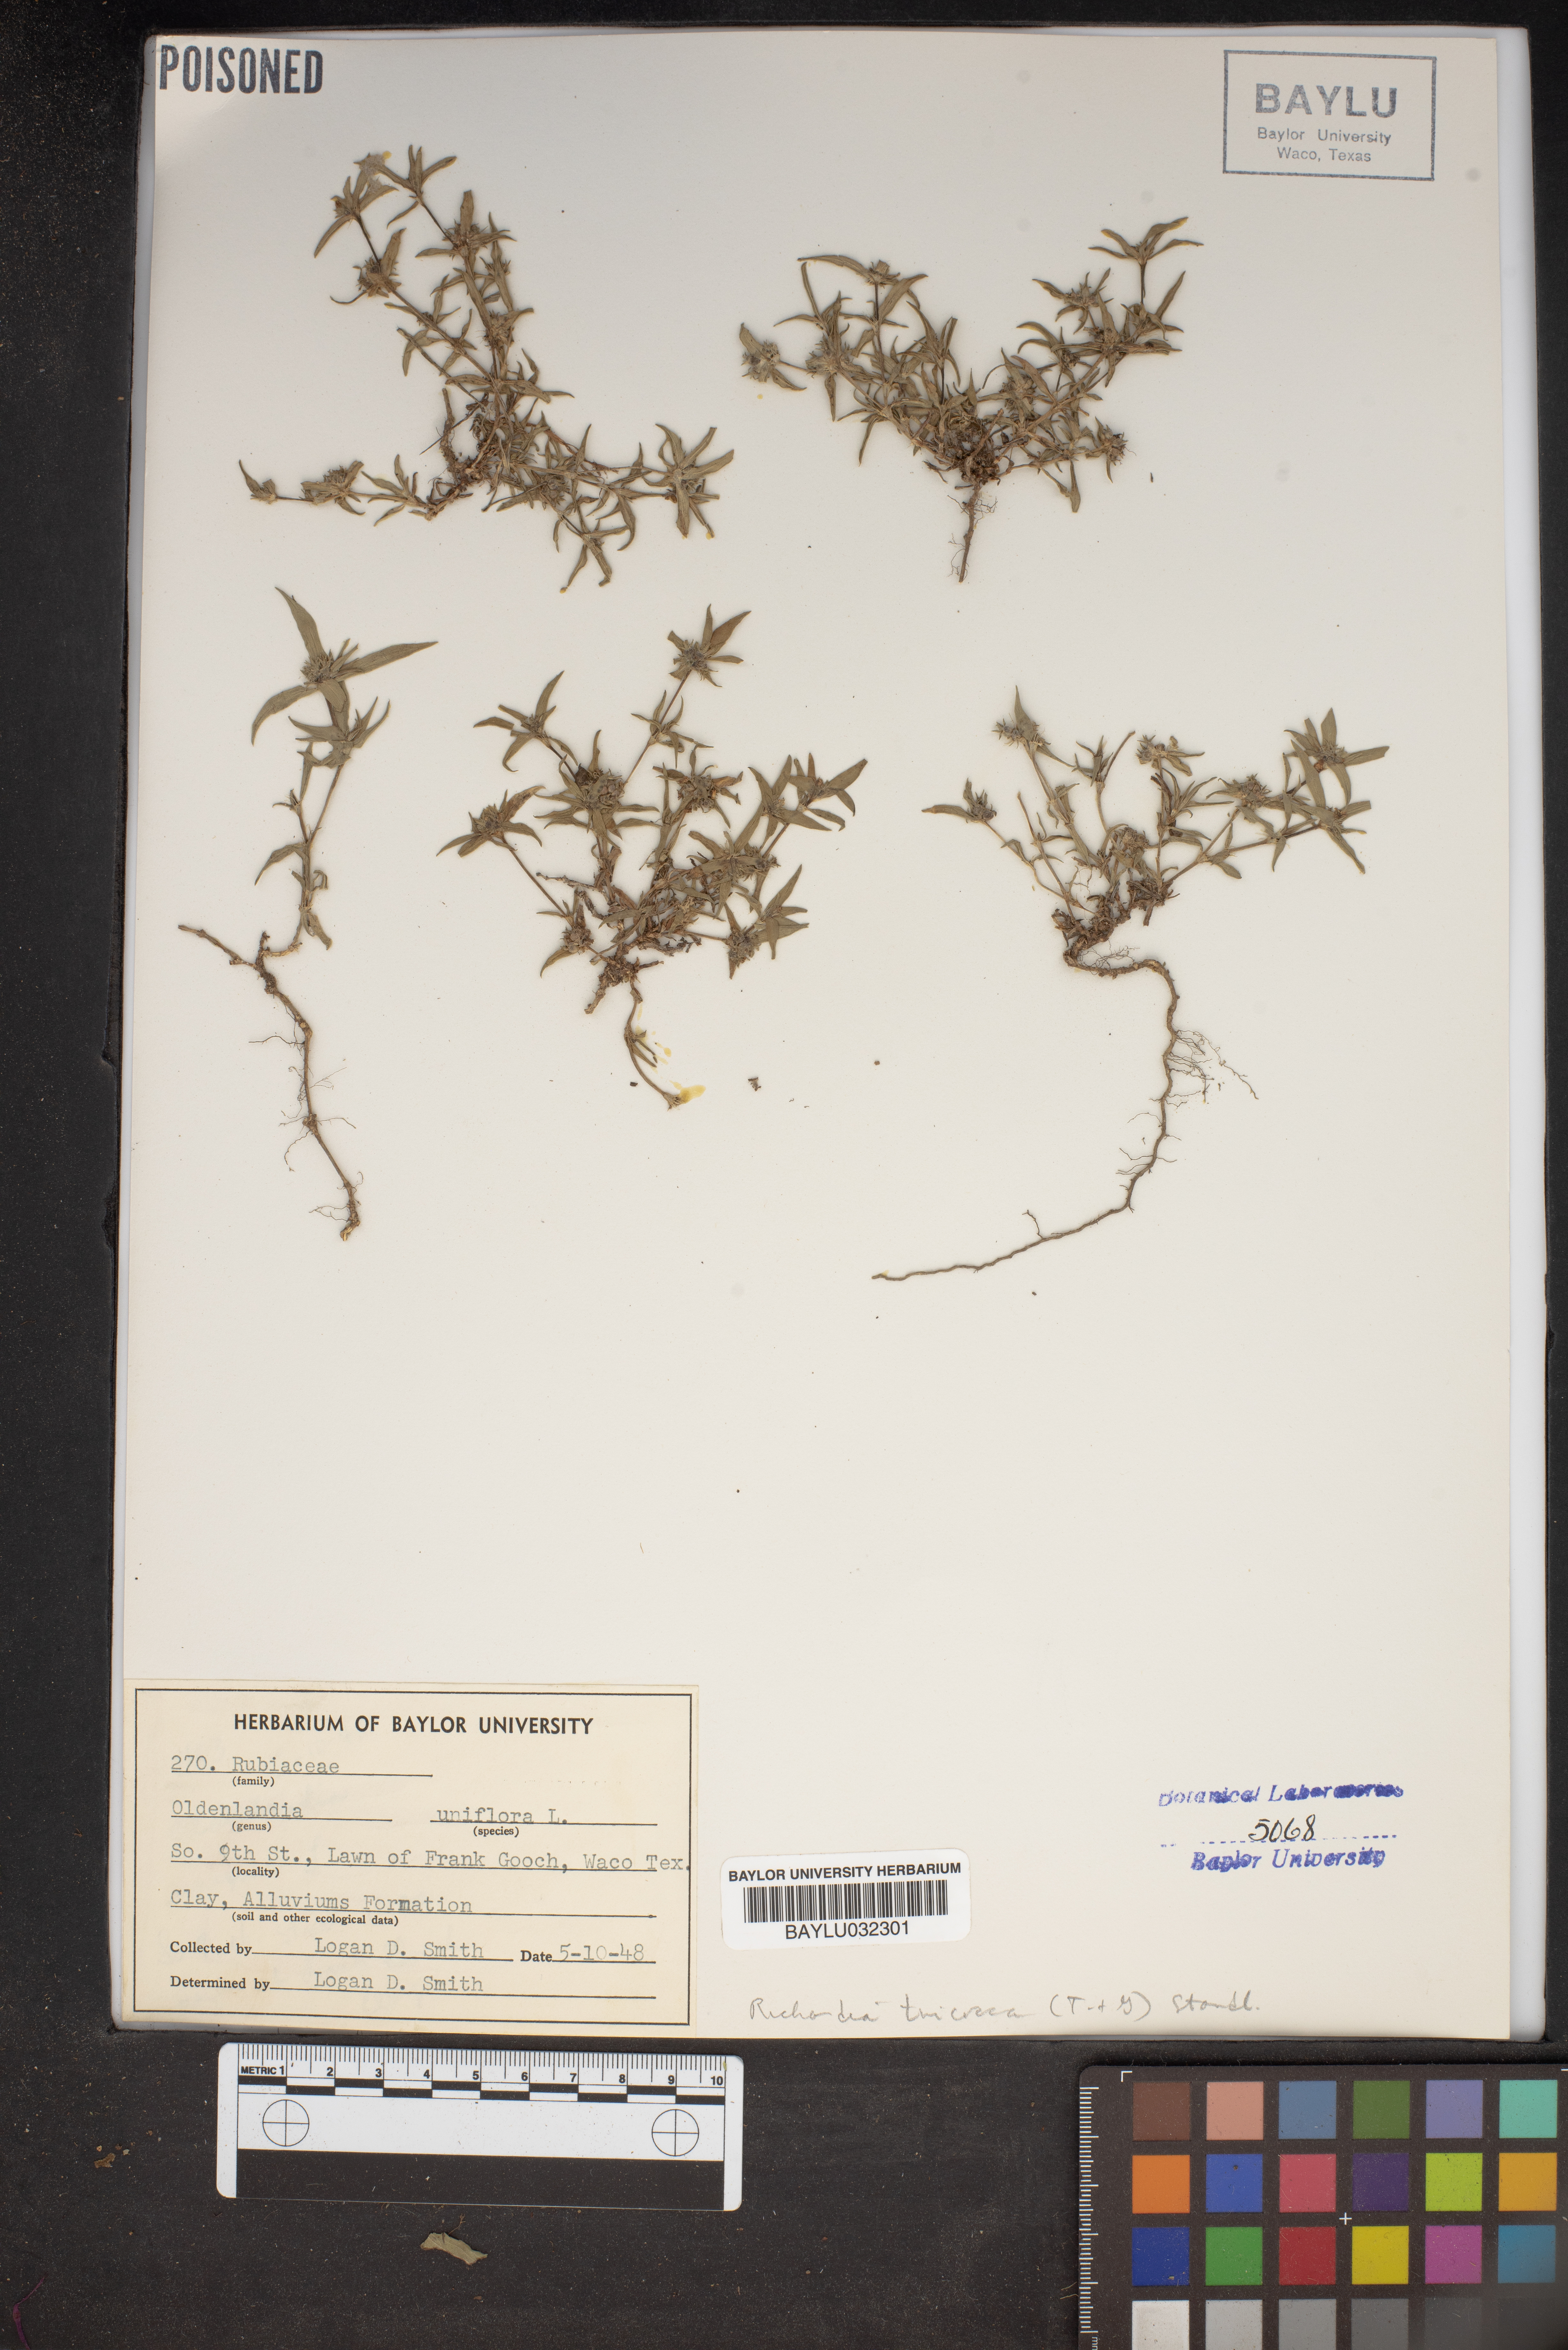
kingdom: Plantae
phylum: Tracheophyta
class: Magnoliopsida
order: Gentianales
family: Rubiaceae
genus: Edrastima
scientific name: Edrastima uniflora
